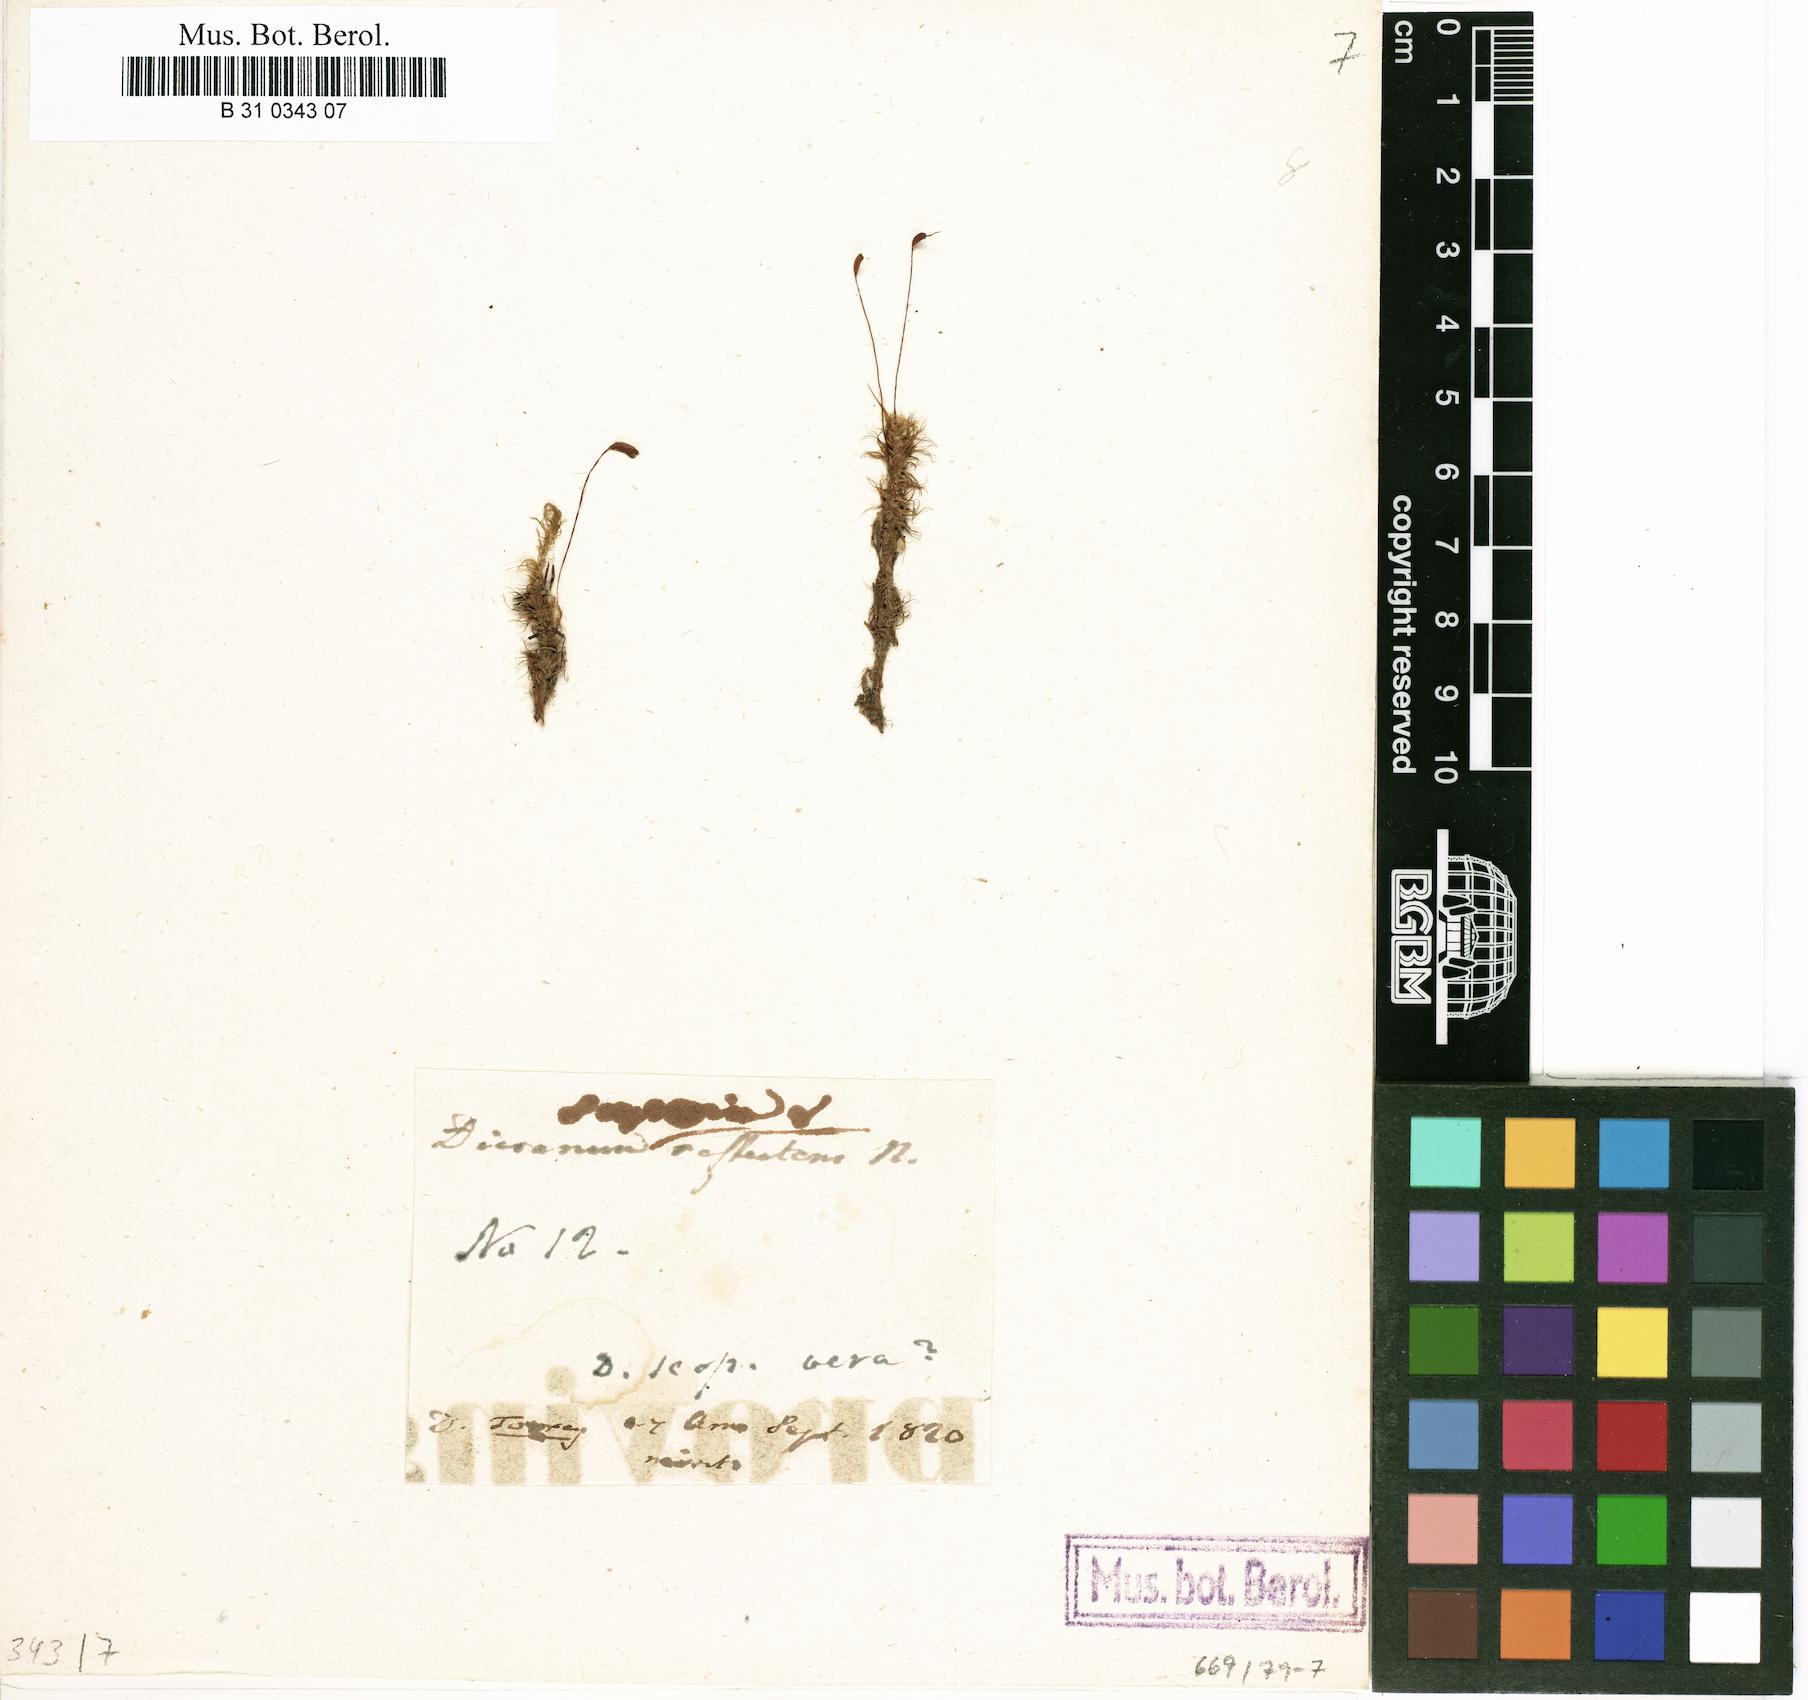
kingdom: Plantae
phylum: Bryophyta
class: Bryopsida
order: Dicranales
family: Dicranaceae
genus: Dicranum
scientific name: Dicranum scoparium
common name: Broom fork-moss
